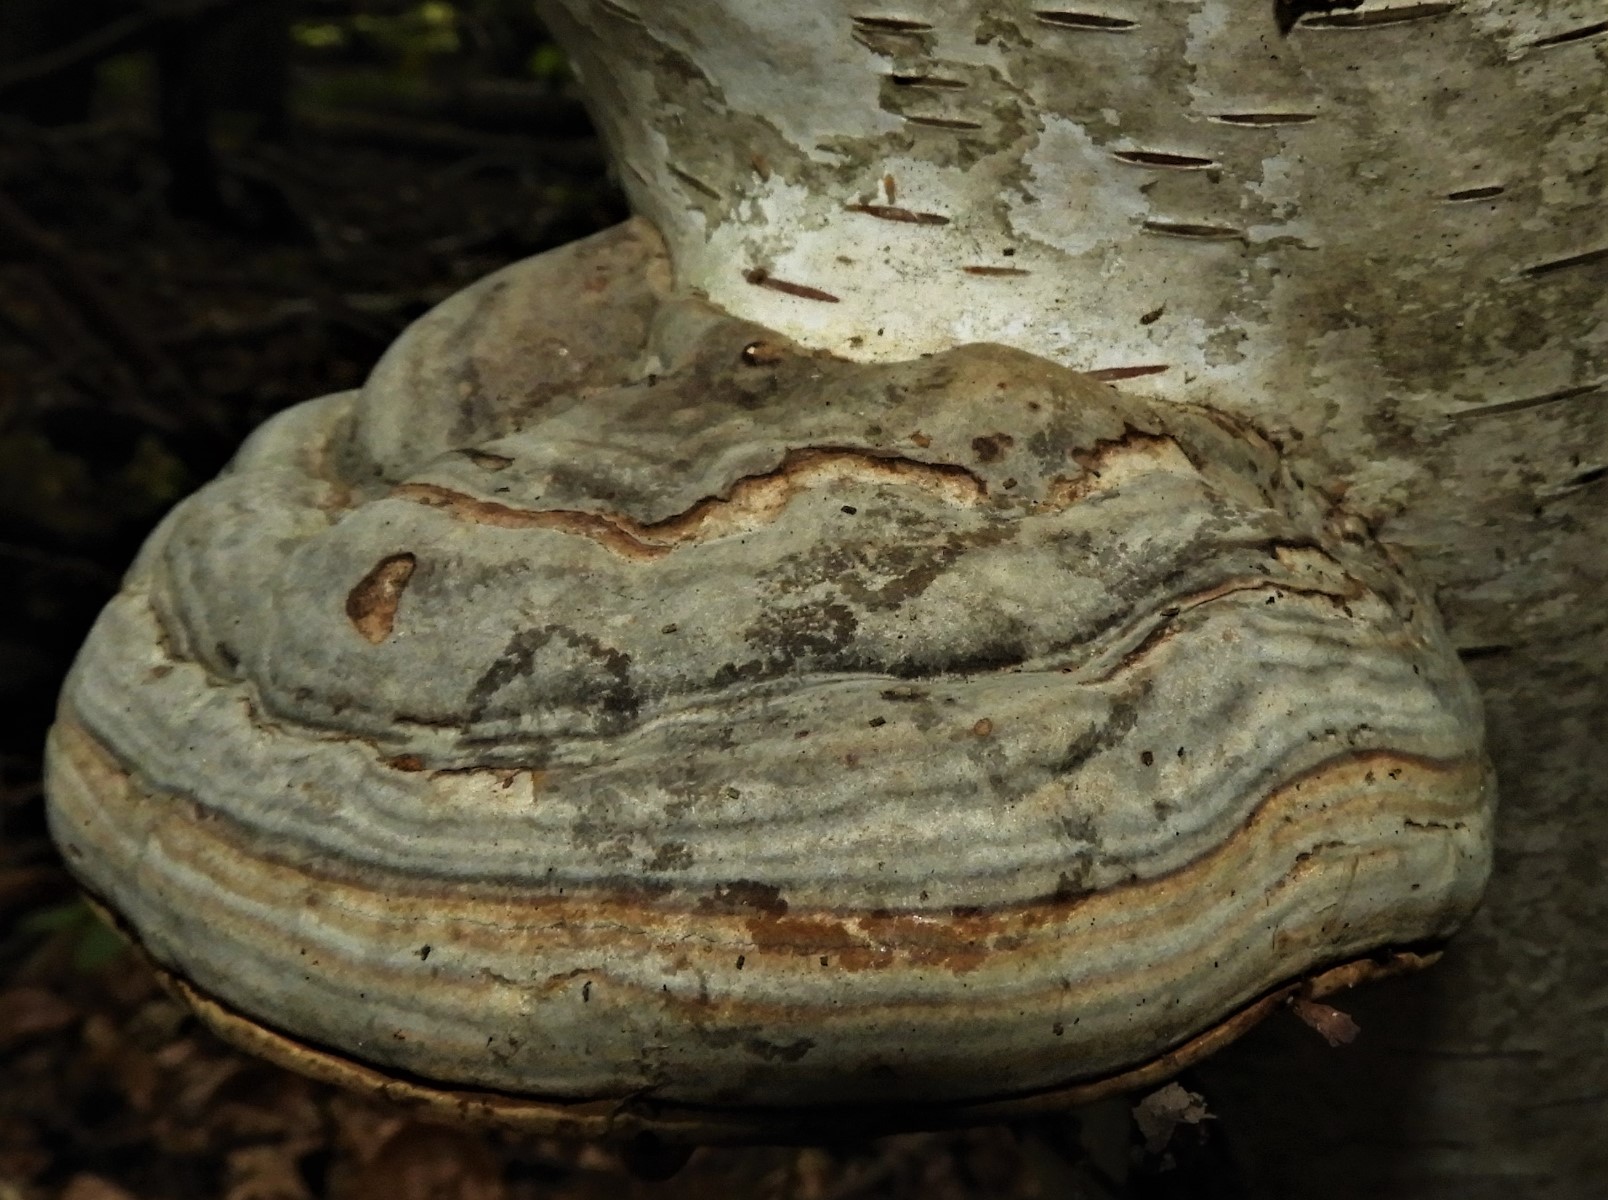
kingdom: Fungi
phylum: Basidiomycota
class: Agaricomycetes
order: Polyporales
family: Polyporaceae
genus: Fomes
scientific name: Fomes fomentarius
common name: tøndersvamp
